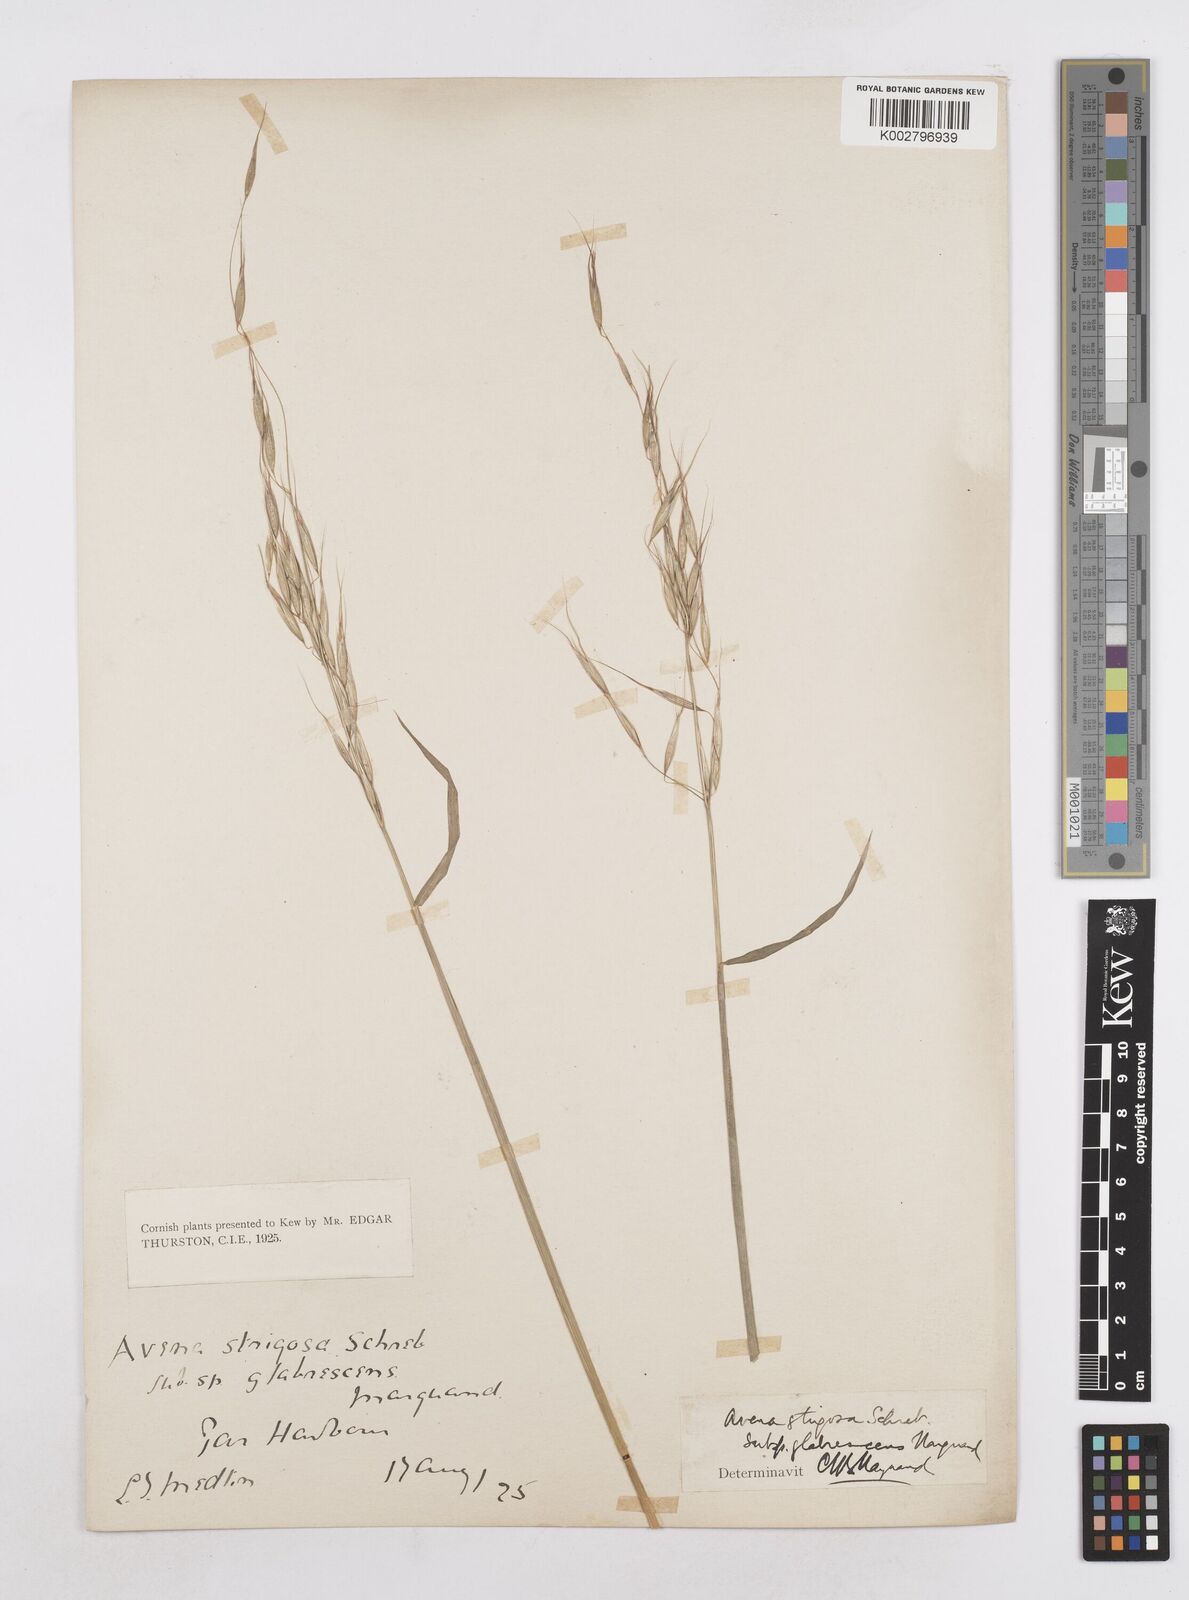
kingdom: Plantae
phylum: Tracheophyta
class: Liliopsida
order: Poales
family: Poaceae
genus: Avena
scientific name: Avena strigosa
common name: Bristle oat
